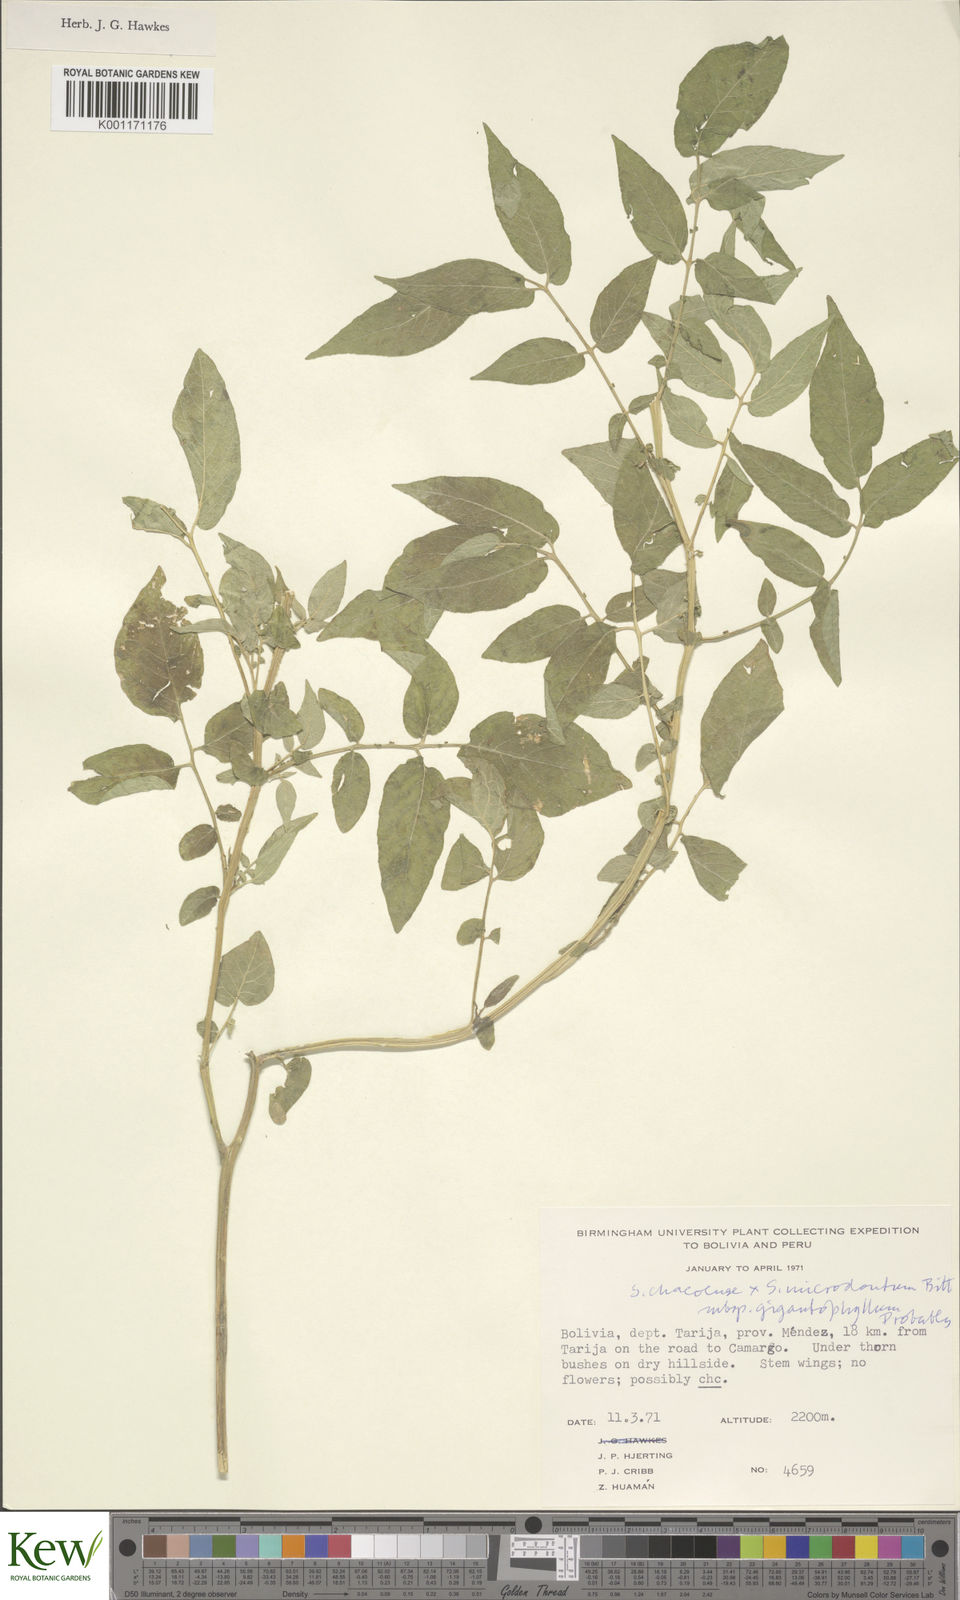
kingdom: Plantae
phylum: Tracheophyta
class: Magnoliopsida
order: Solanales
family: Solanaceae
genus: Solanum
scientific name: Solanum microdontum
